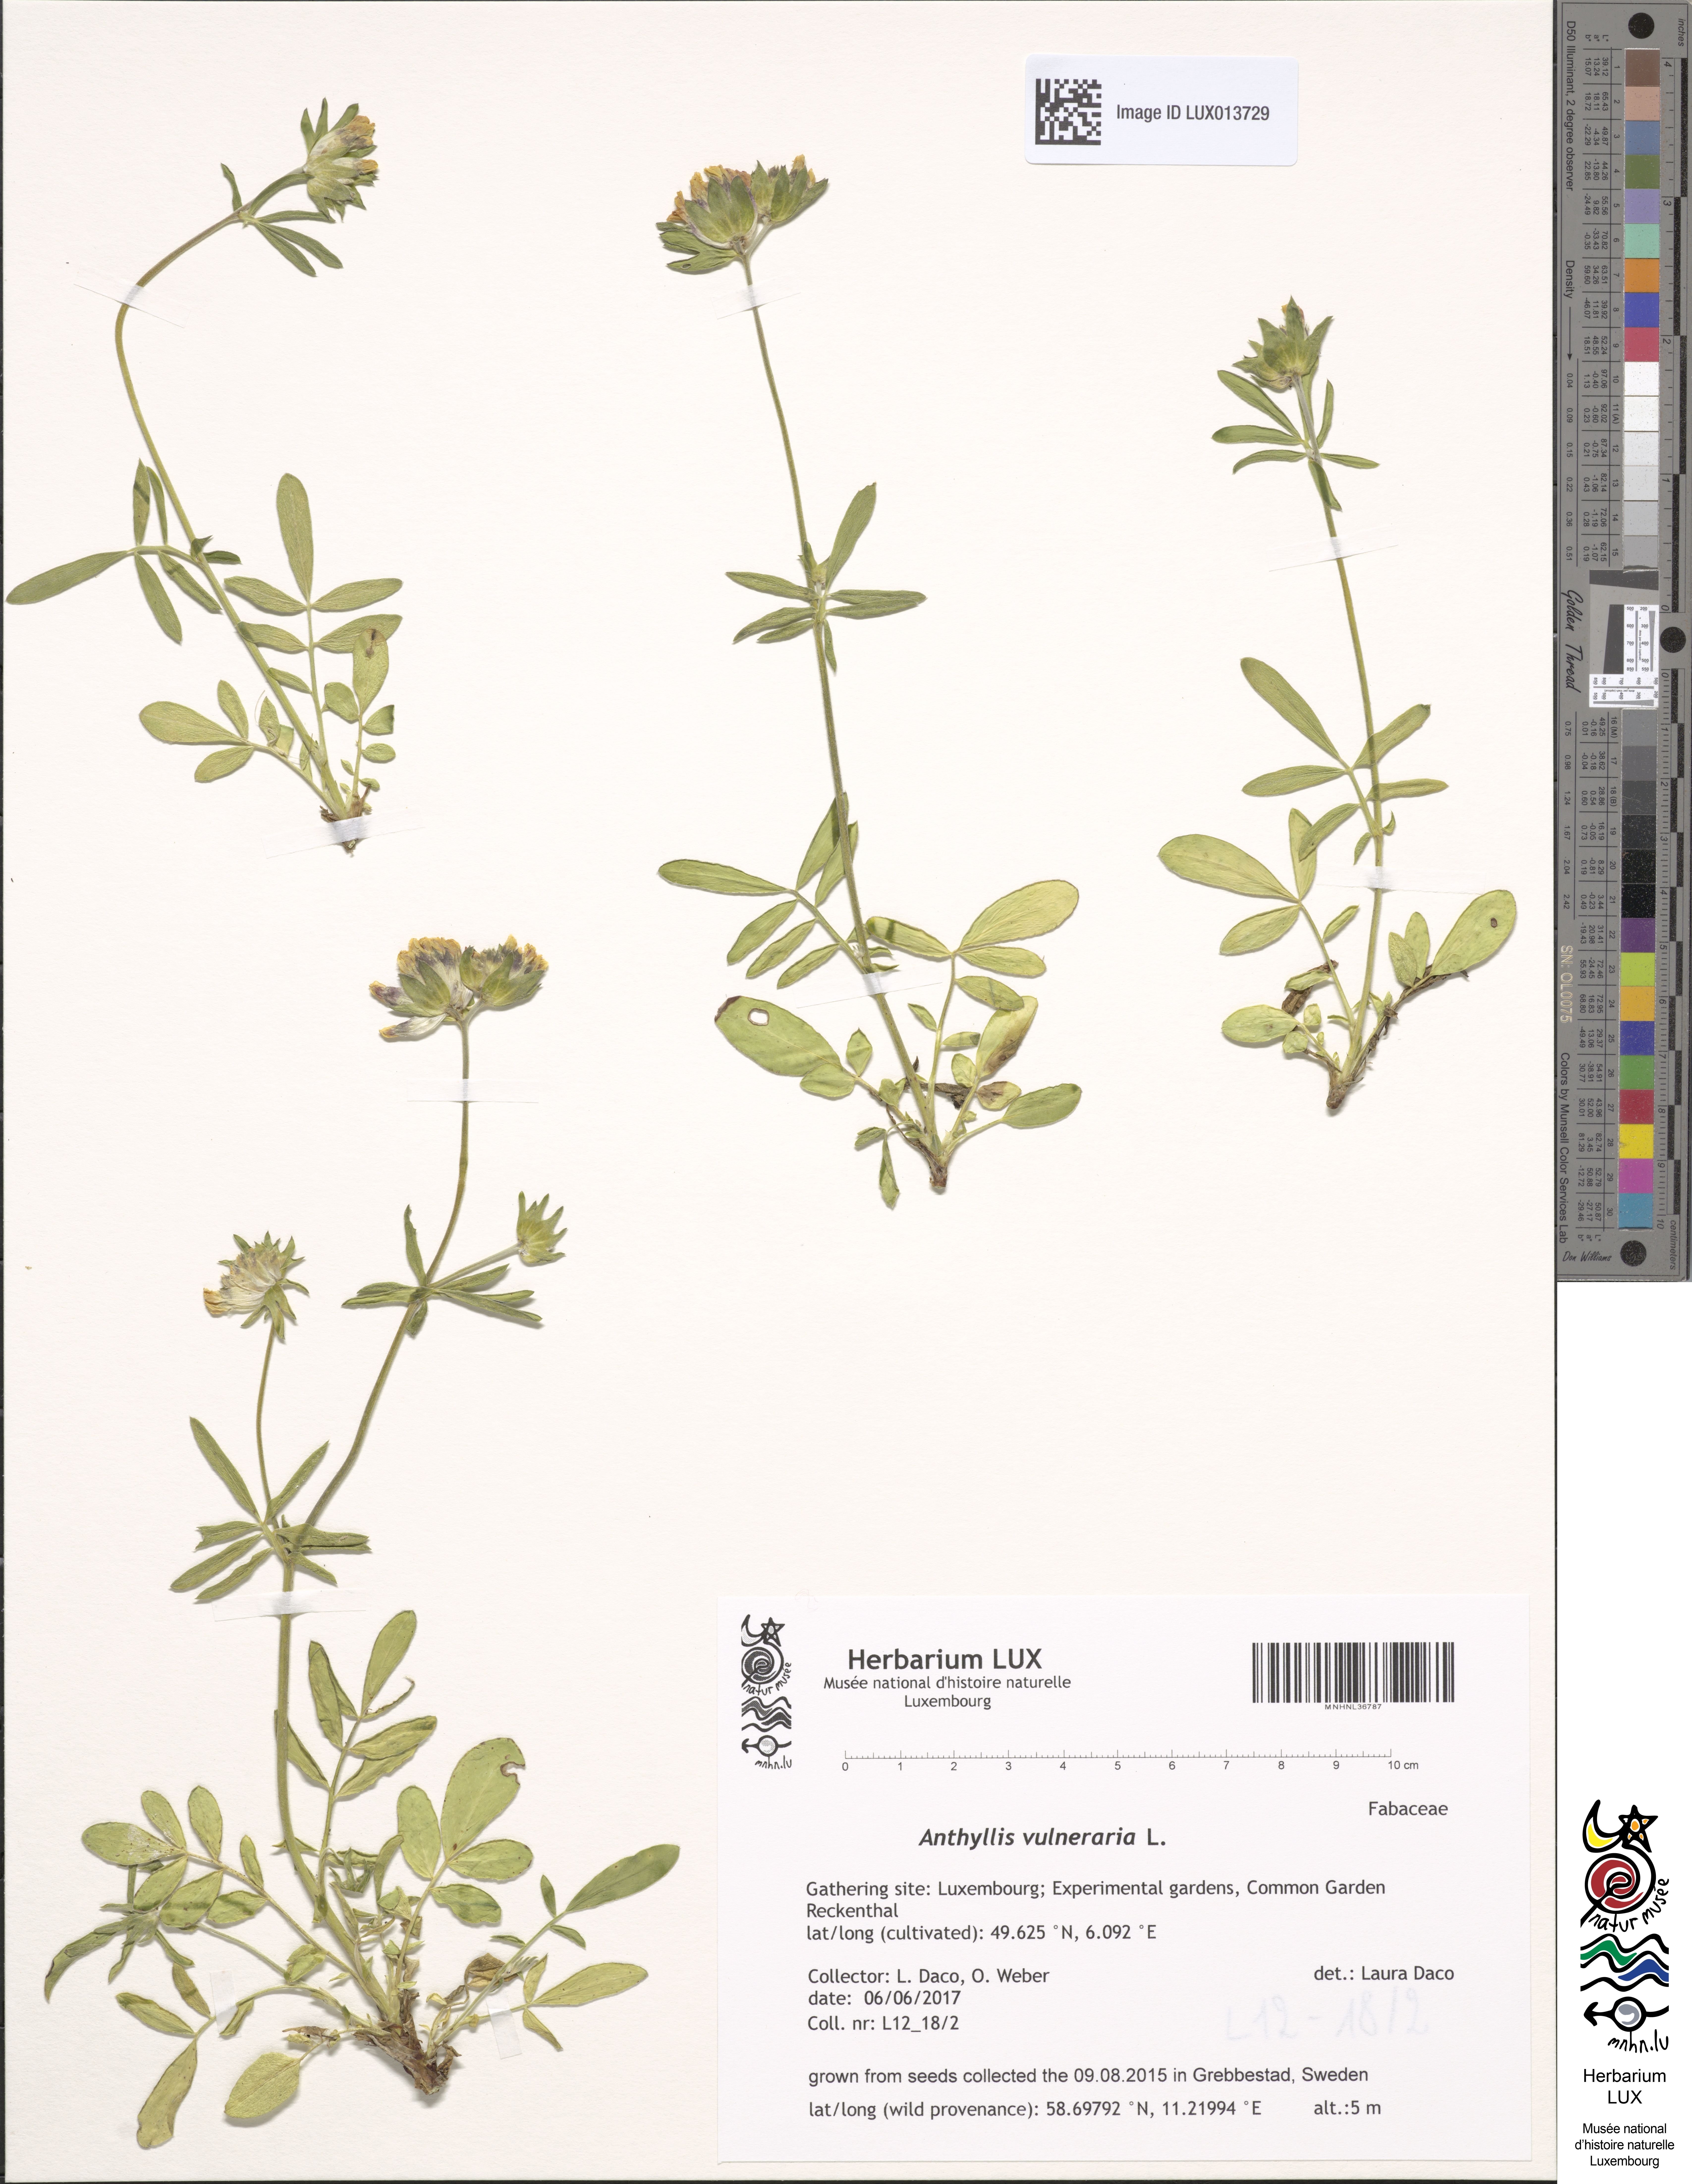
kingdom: Plantae
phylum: Tracheophyta
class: Magnoliopsida
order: Fabales
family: Fabaceae
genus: Anthyllis
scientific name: Anthyllis vulneraria
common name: Kidney vetch
